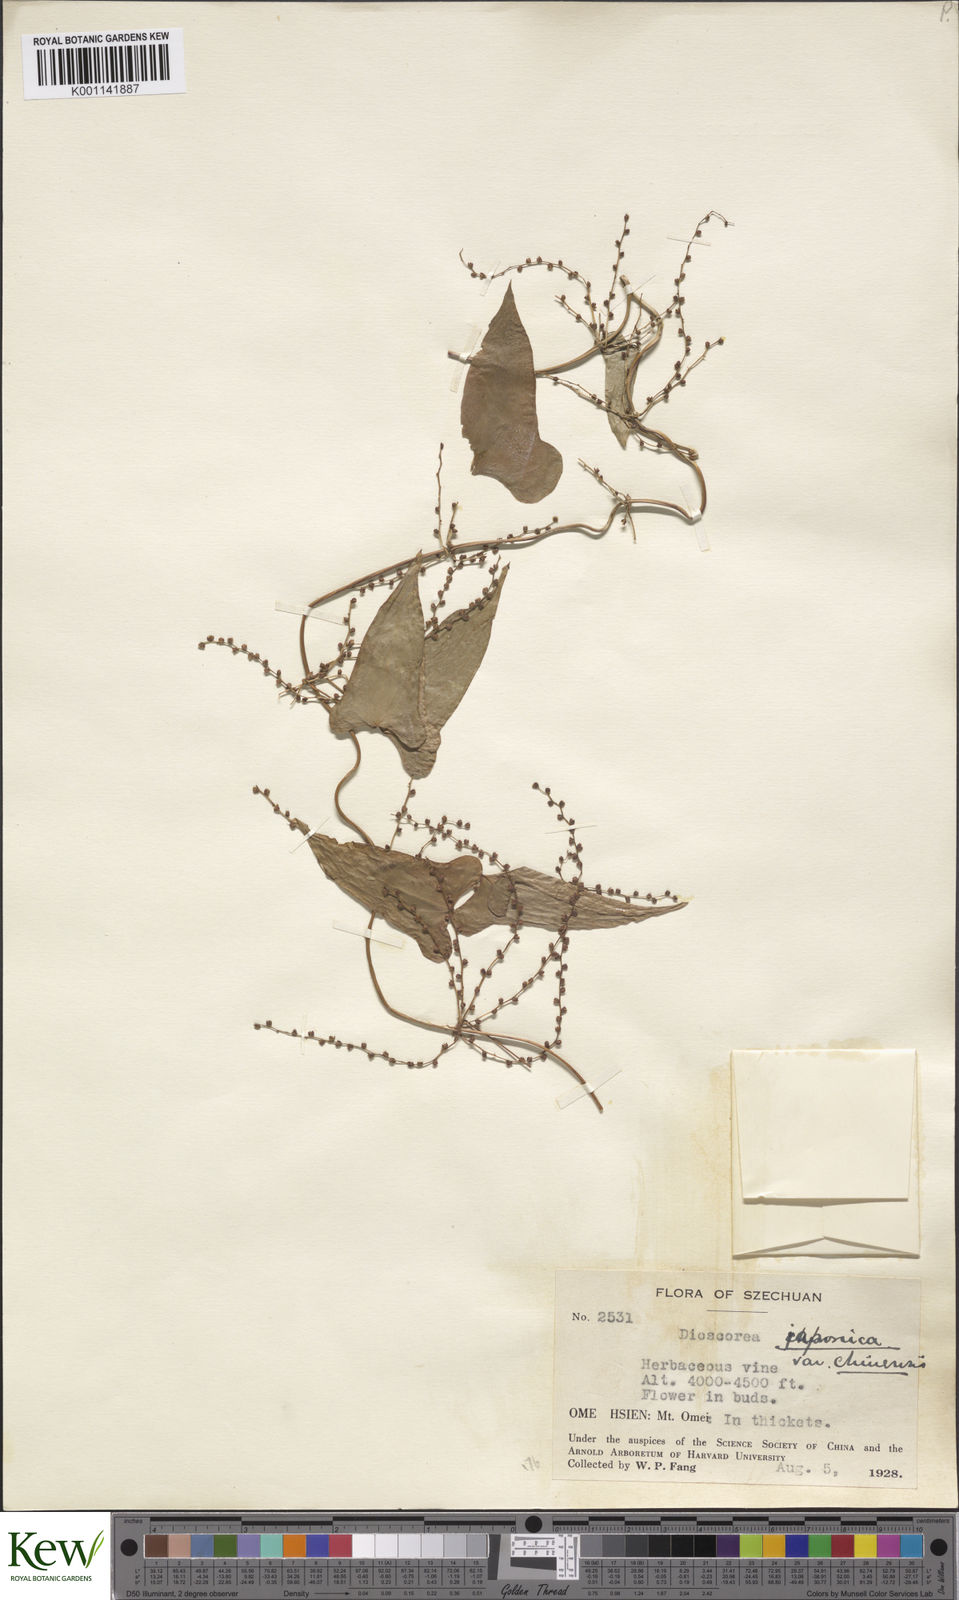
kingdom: Plantae
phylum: Tracheophyta
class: Liliopsida
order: Dioscoreales
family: Dioscoreaceae
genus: Dioscorea
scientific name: Dioscorea japonica
